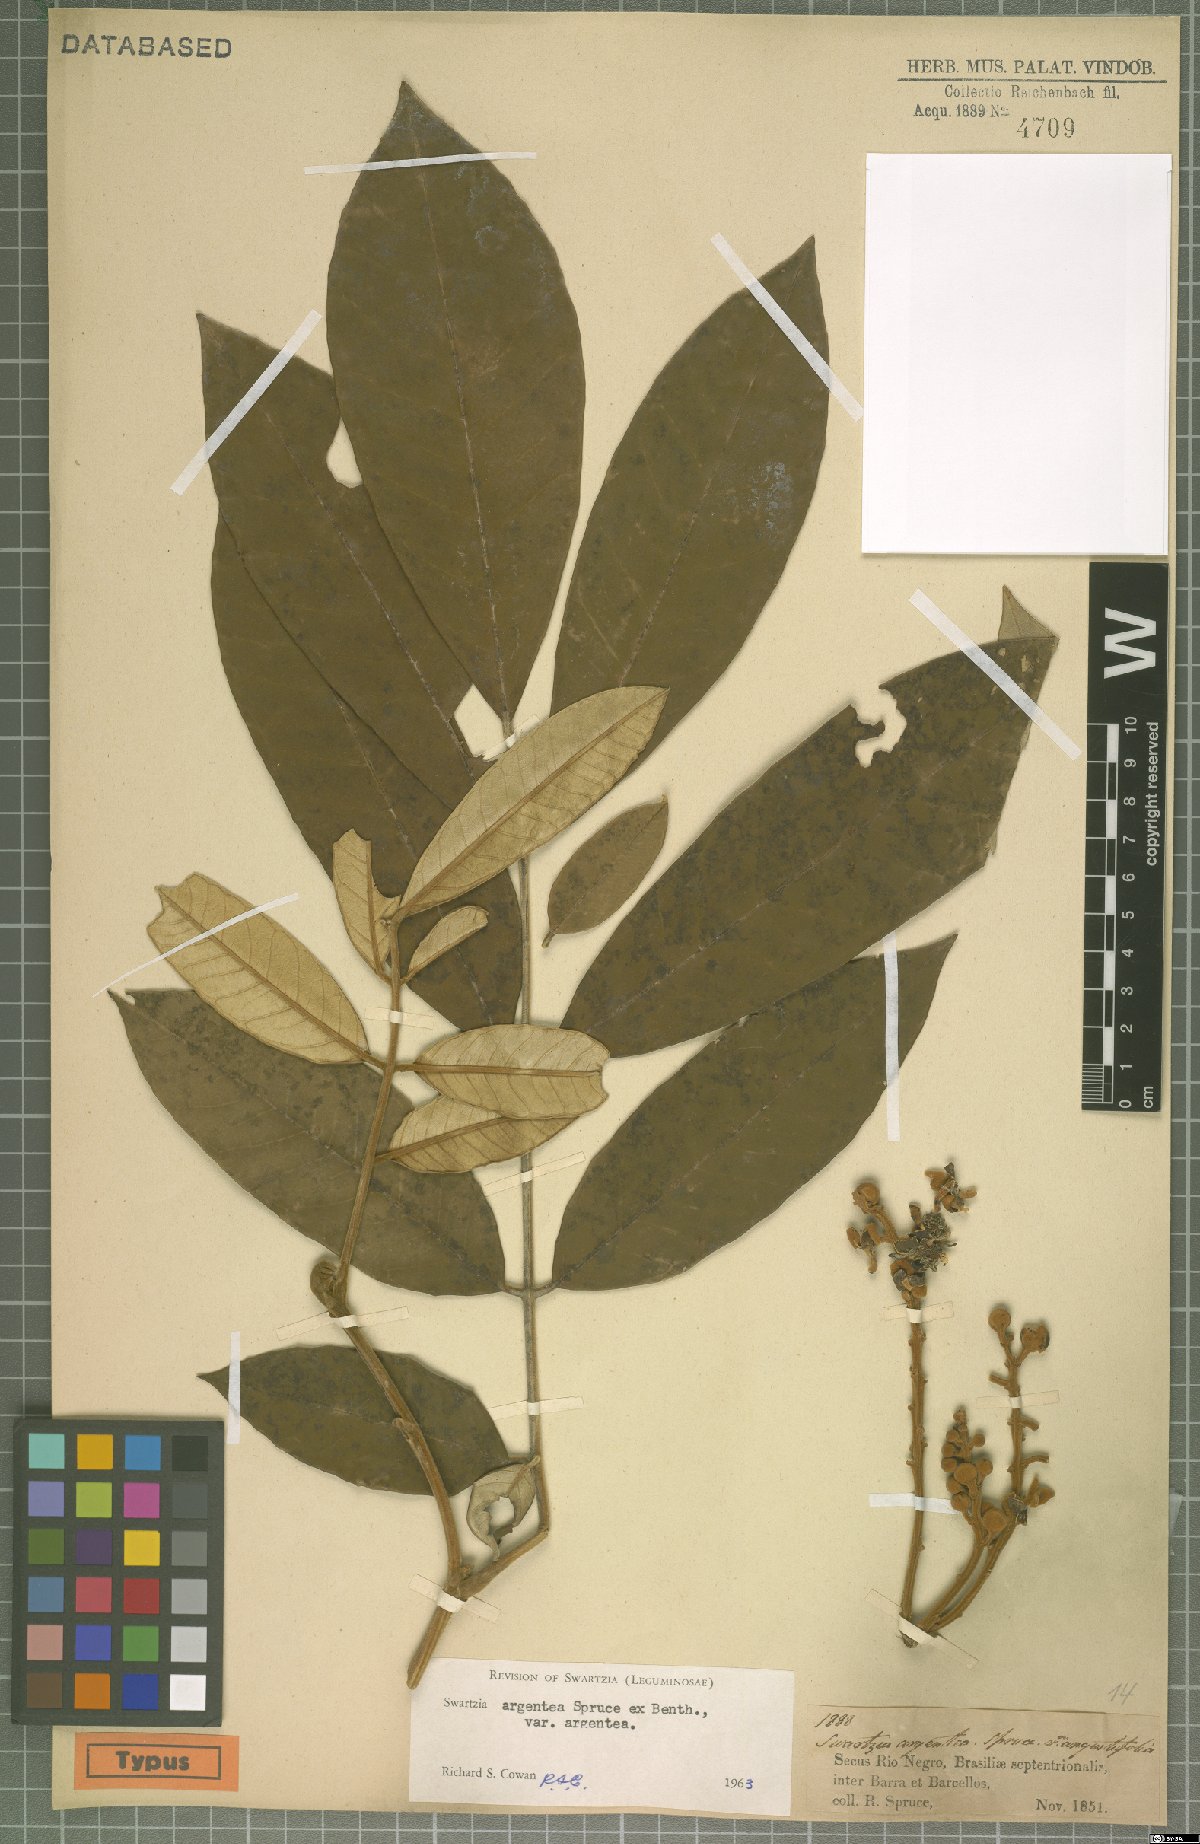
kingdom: Plantae
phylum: Tracheophyta
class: Magnoliopsida
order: Fabales
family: Fabaceae
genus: Swartzia
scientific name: Swartzia argentea
